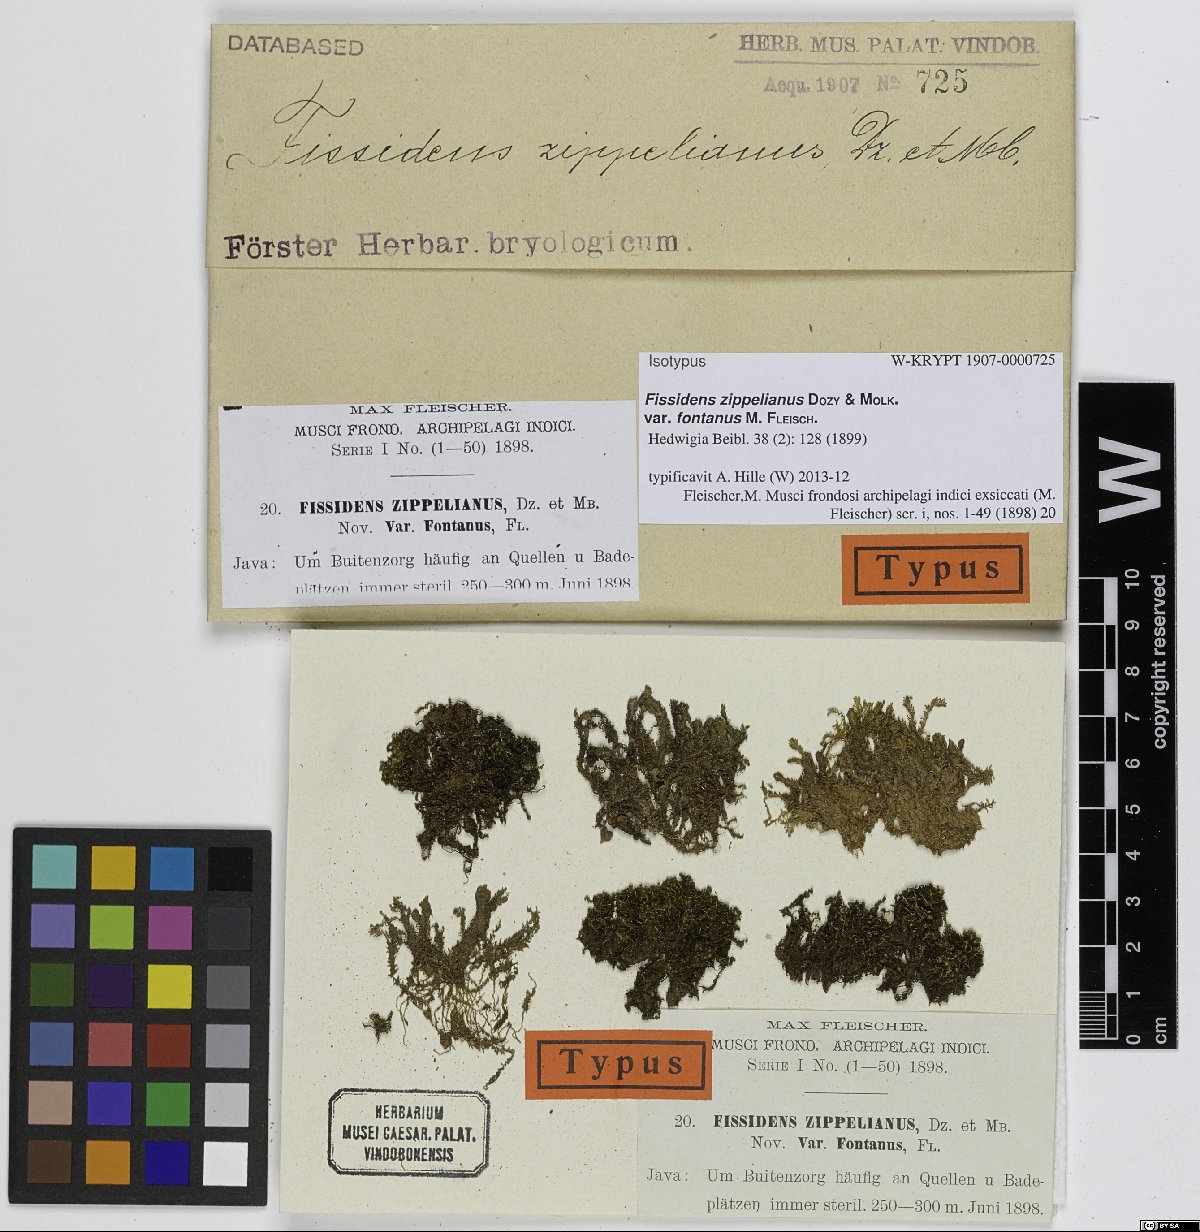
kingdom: Plantae
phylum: Bryophyta
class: Bryopsida
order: Dicranales
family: Fissidentaceae
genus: Fissidens
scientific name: Fissidens crispulus
